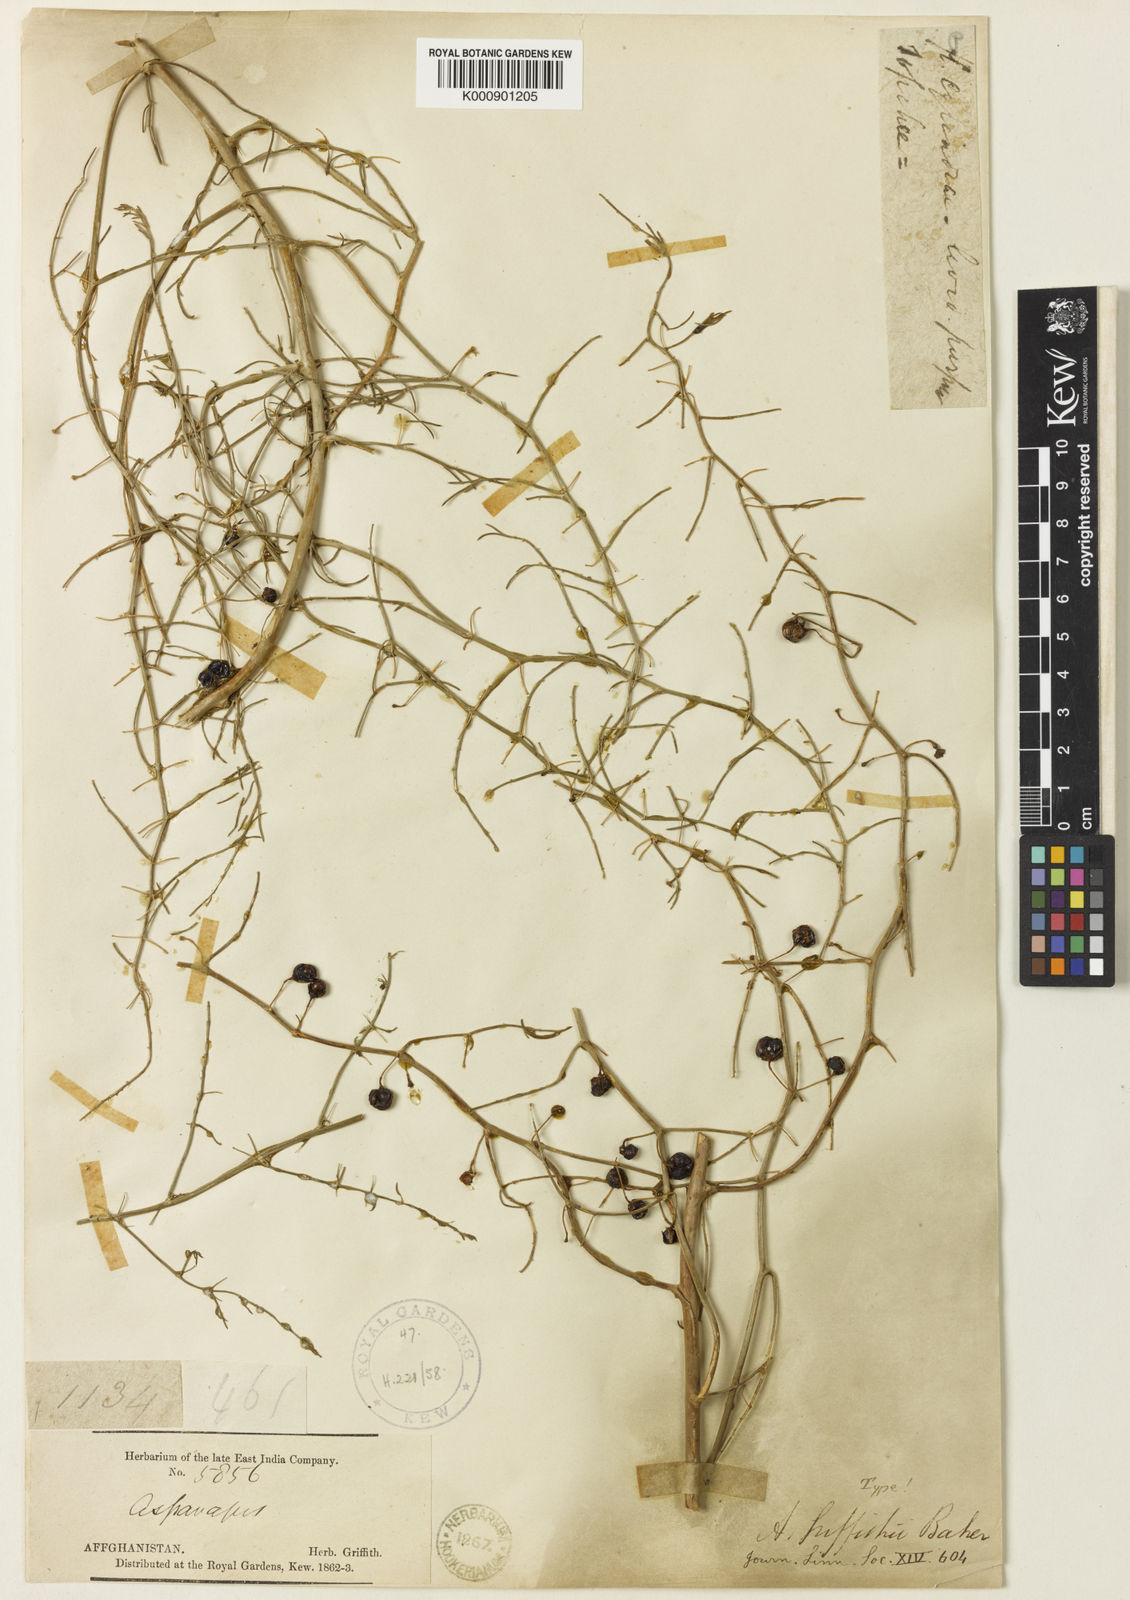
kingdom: Plantae
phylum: Tracheophyta
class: Liliopsida
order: Asparagales
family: Asparagaceae
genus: Asparagus
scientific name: Asparagus griffithii
